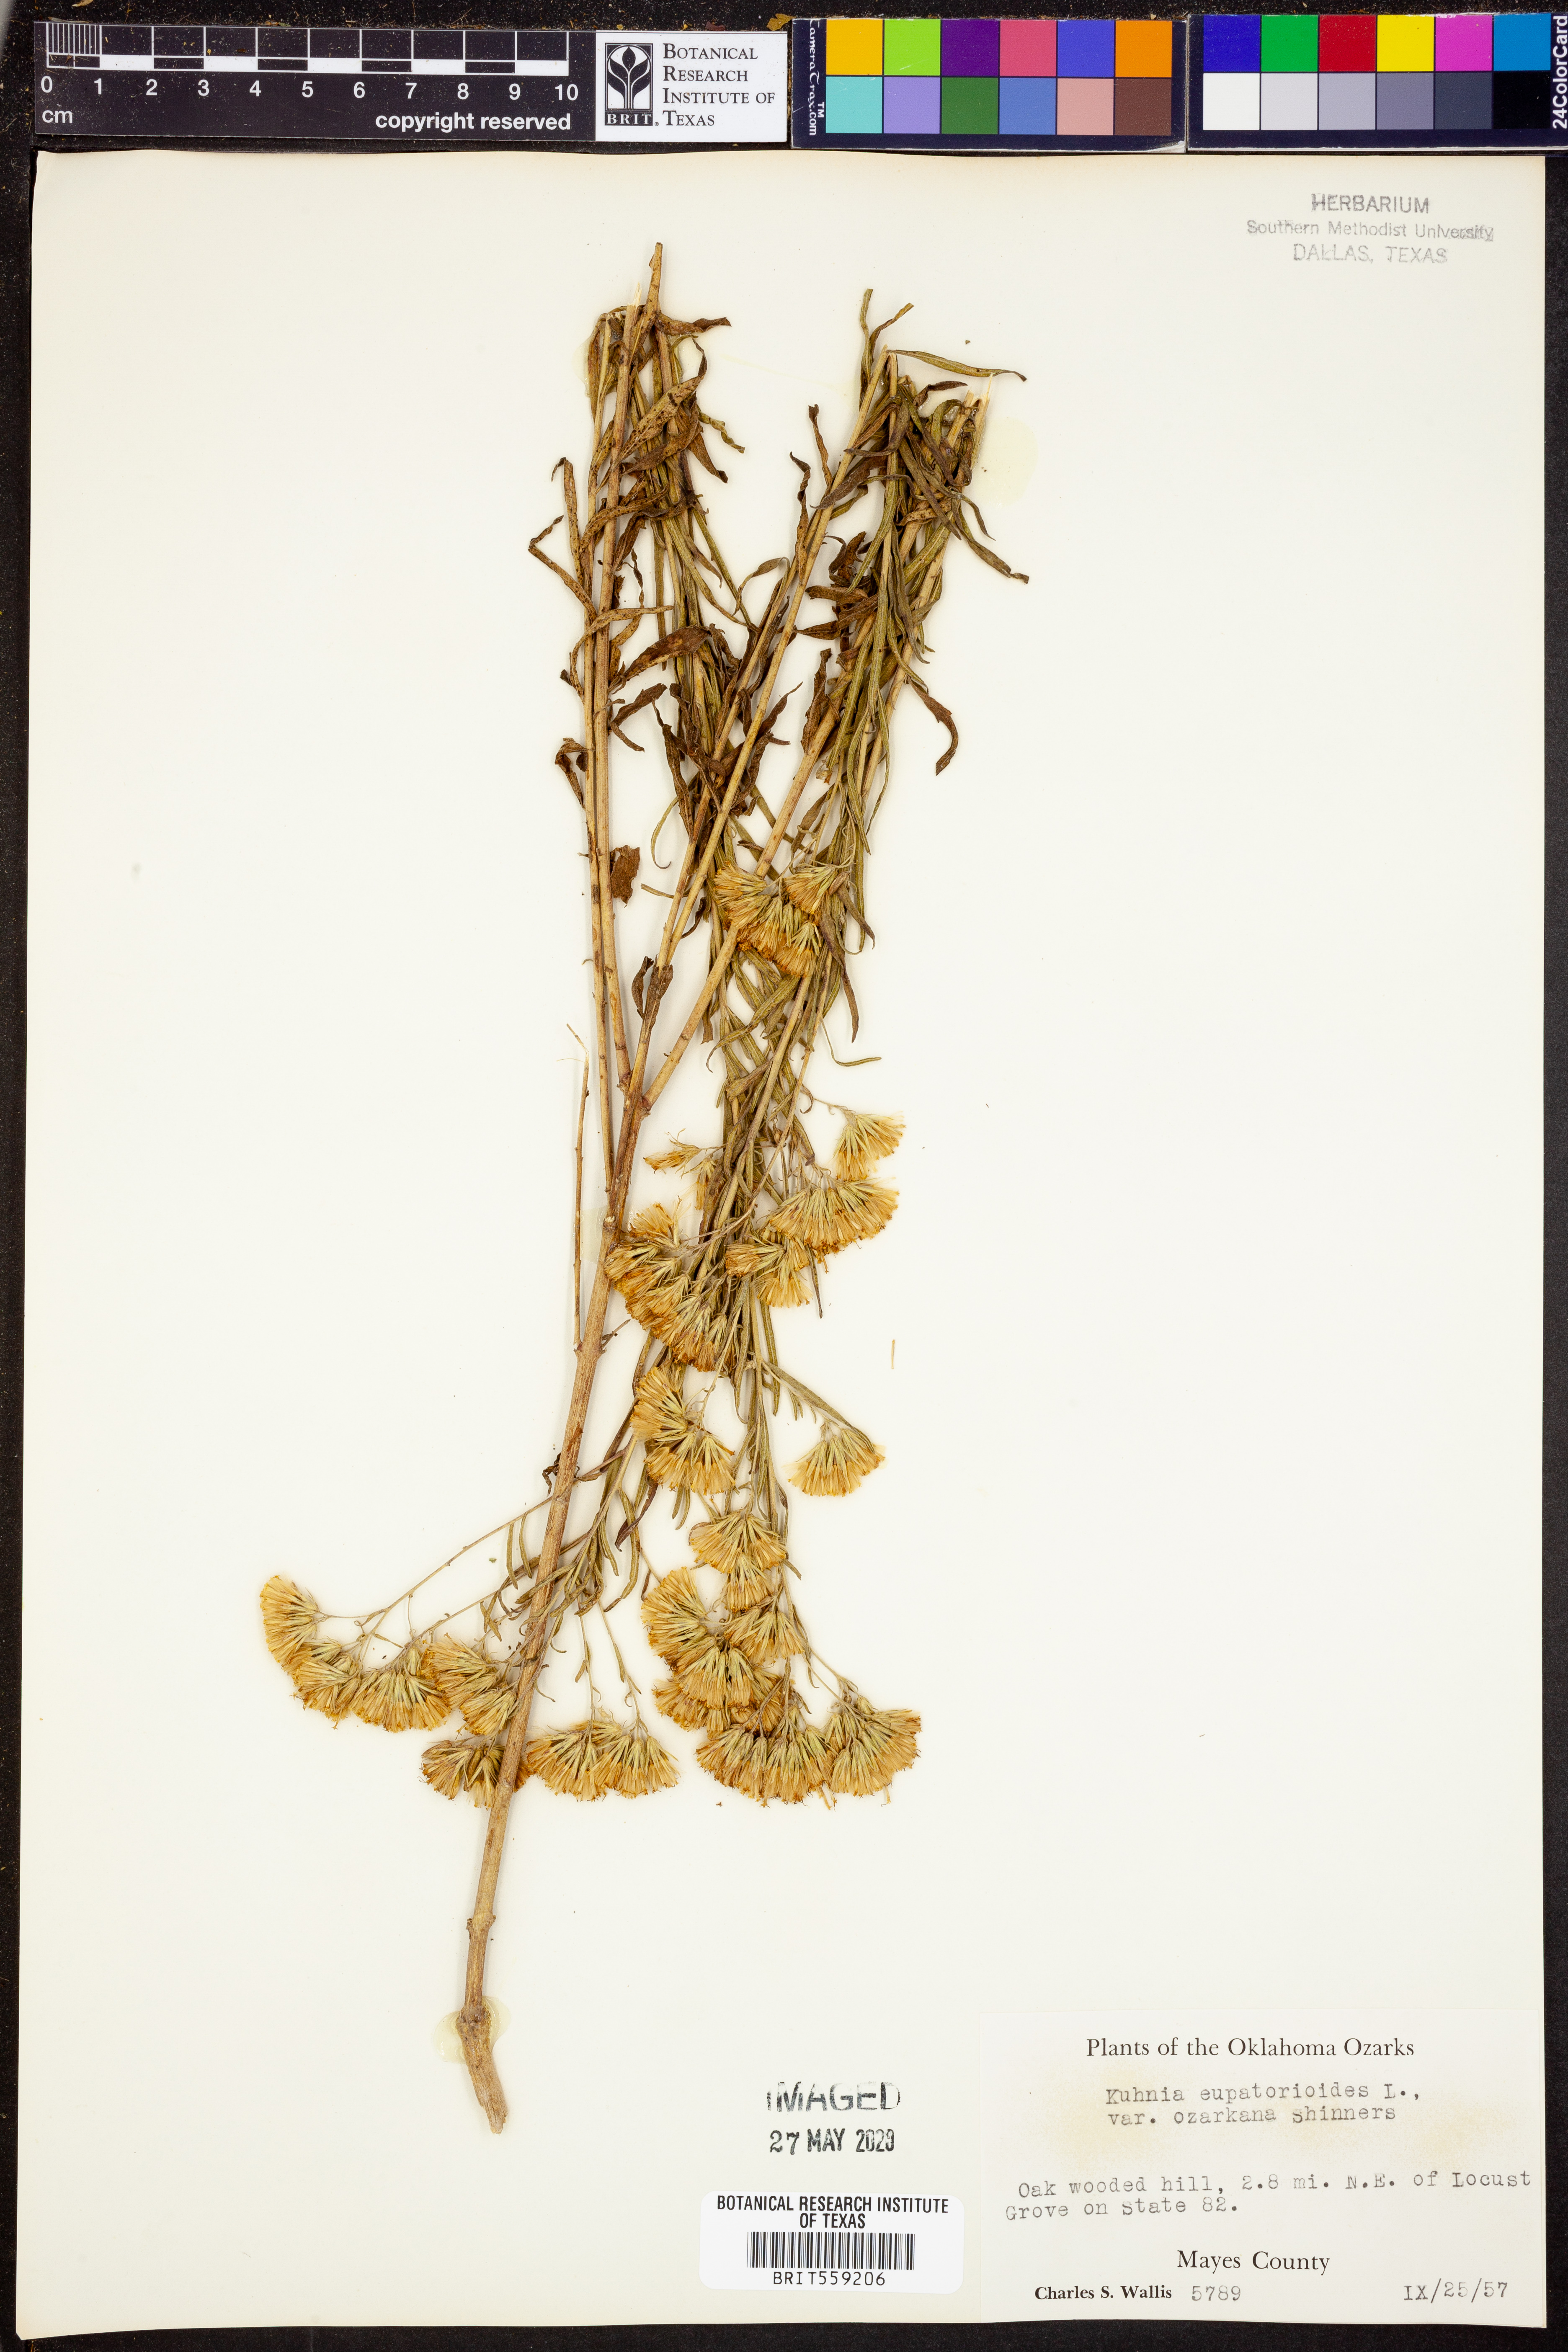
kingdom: Plantae
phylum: Tracheophyta
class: Magnoliopsida
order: Asterales
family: Asteraceae
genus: Brickellia
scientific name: Brickellia ozarkana
